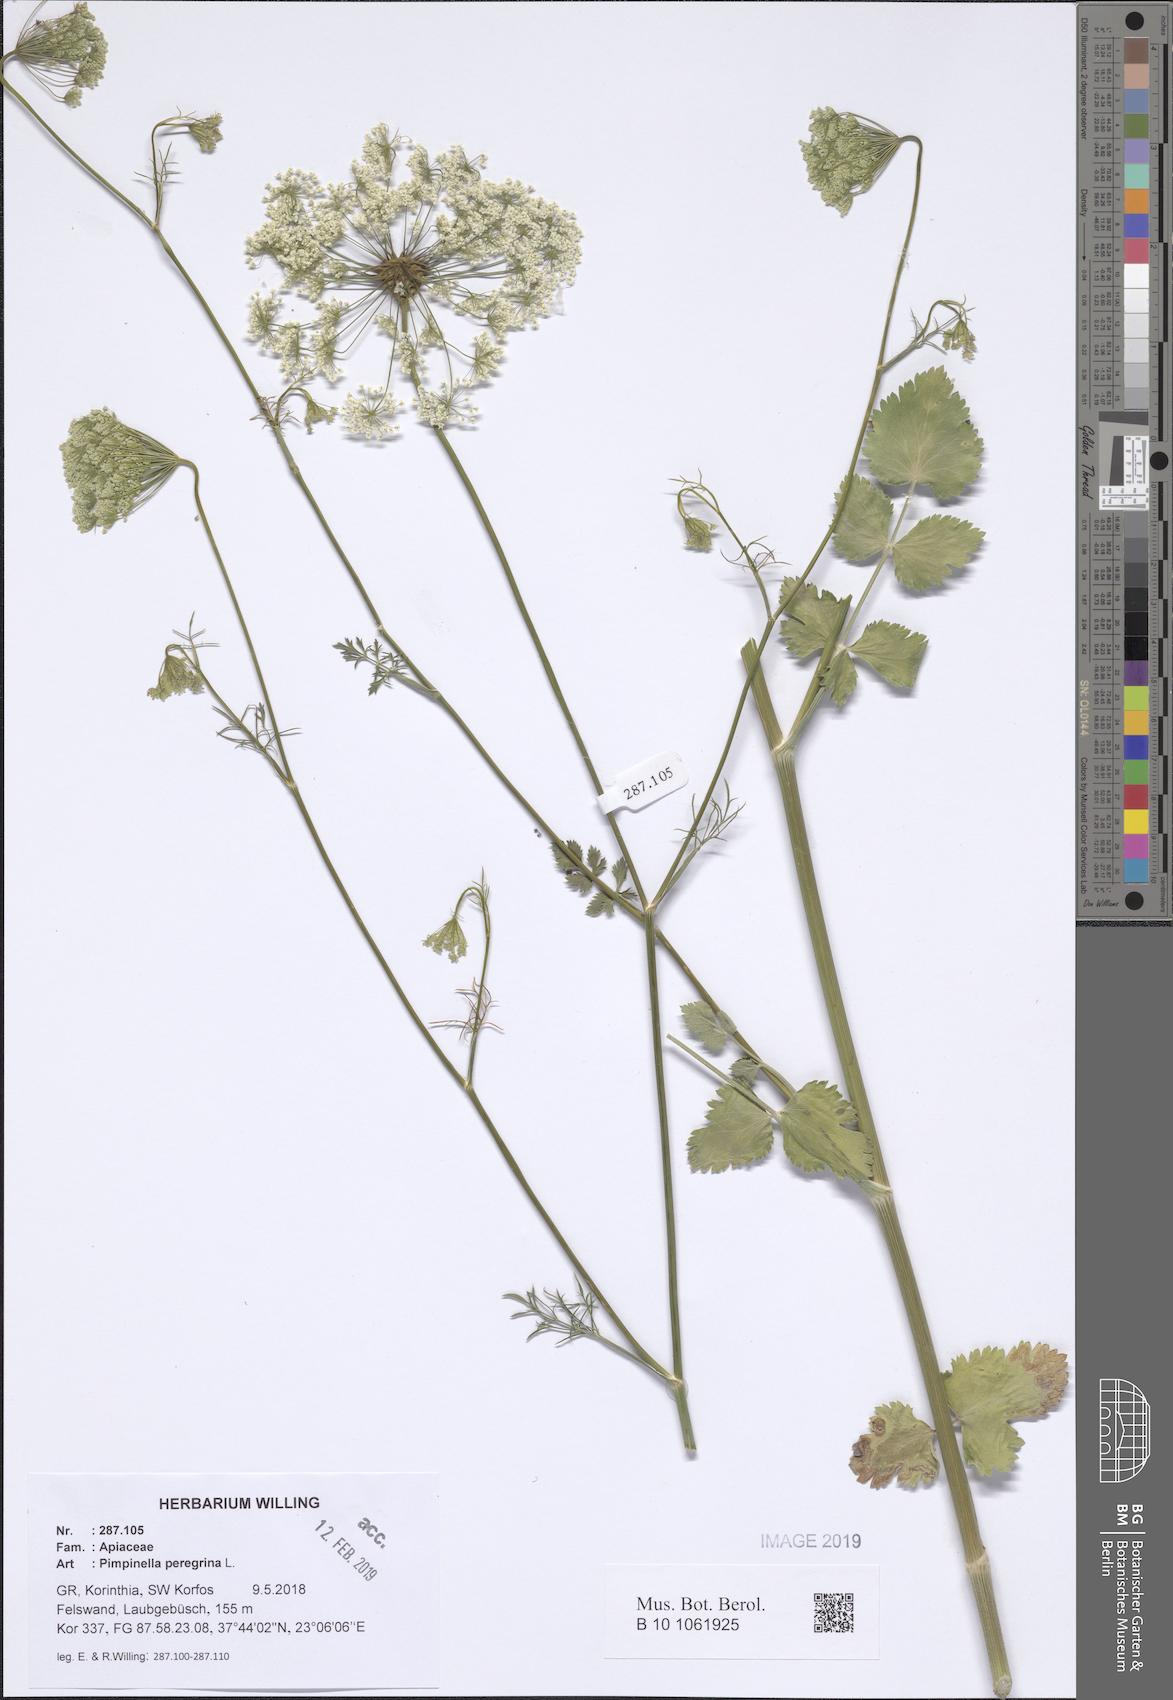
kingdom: Plantae
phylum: Tracheophyta
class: Magnoliopsida
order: Apiales
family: Apiaceae
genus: Pimpinella
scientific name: Pimpinella peregrina
